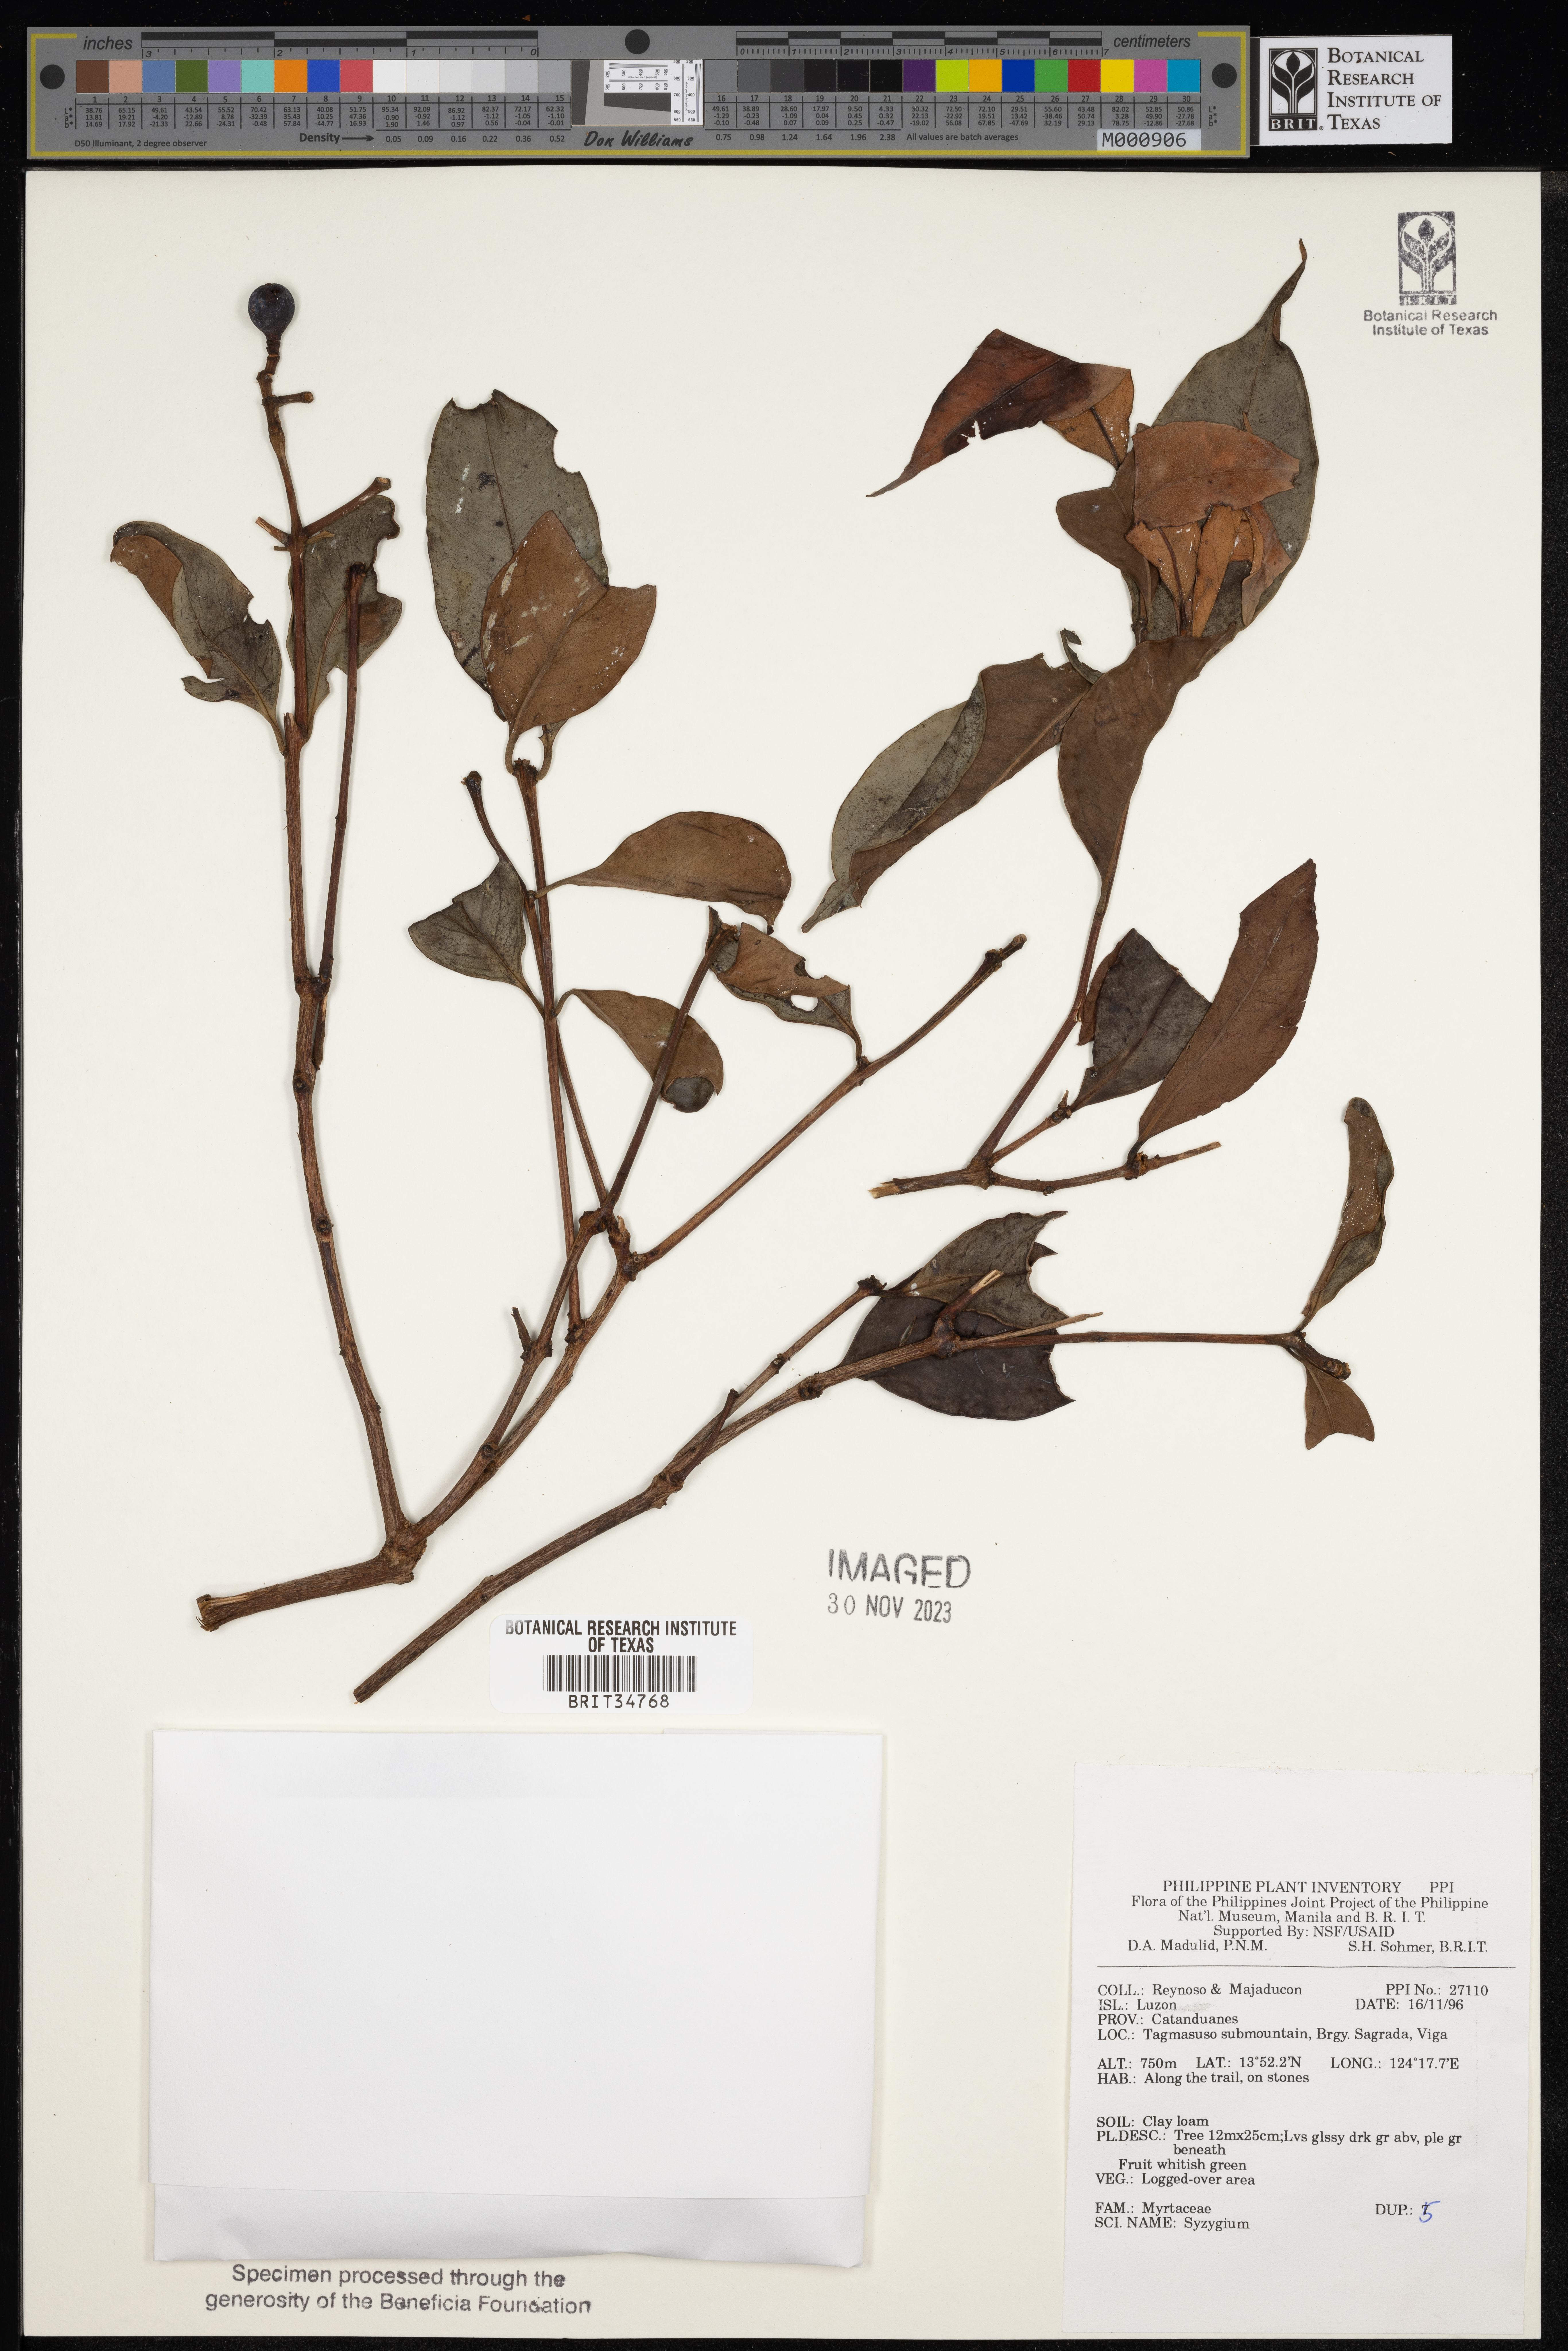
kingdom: Plantae
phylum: Tracheophyta
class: Magnoliopsida
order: Myrtales
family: Myrtaceae
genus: Syzygium
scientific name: Syzygium
